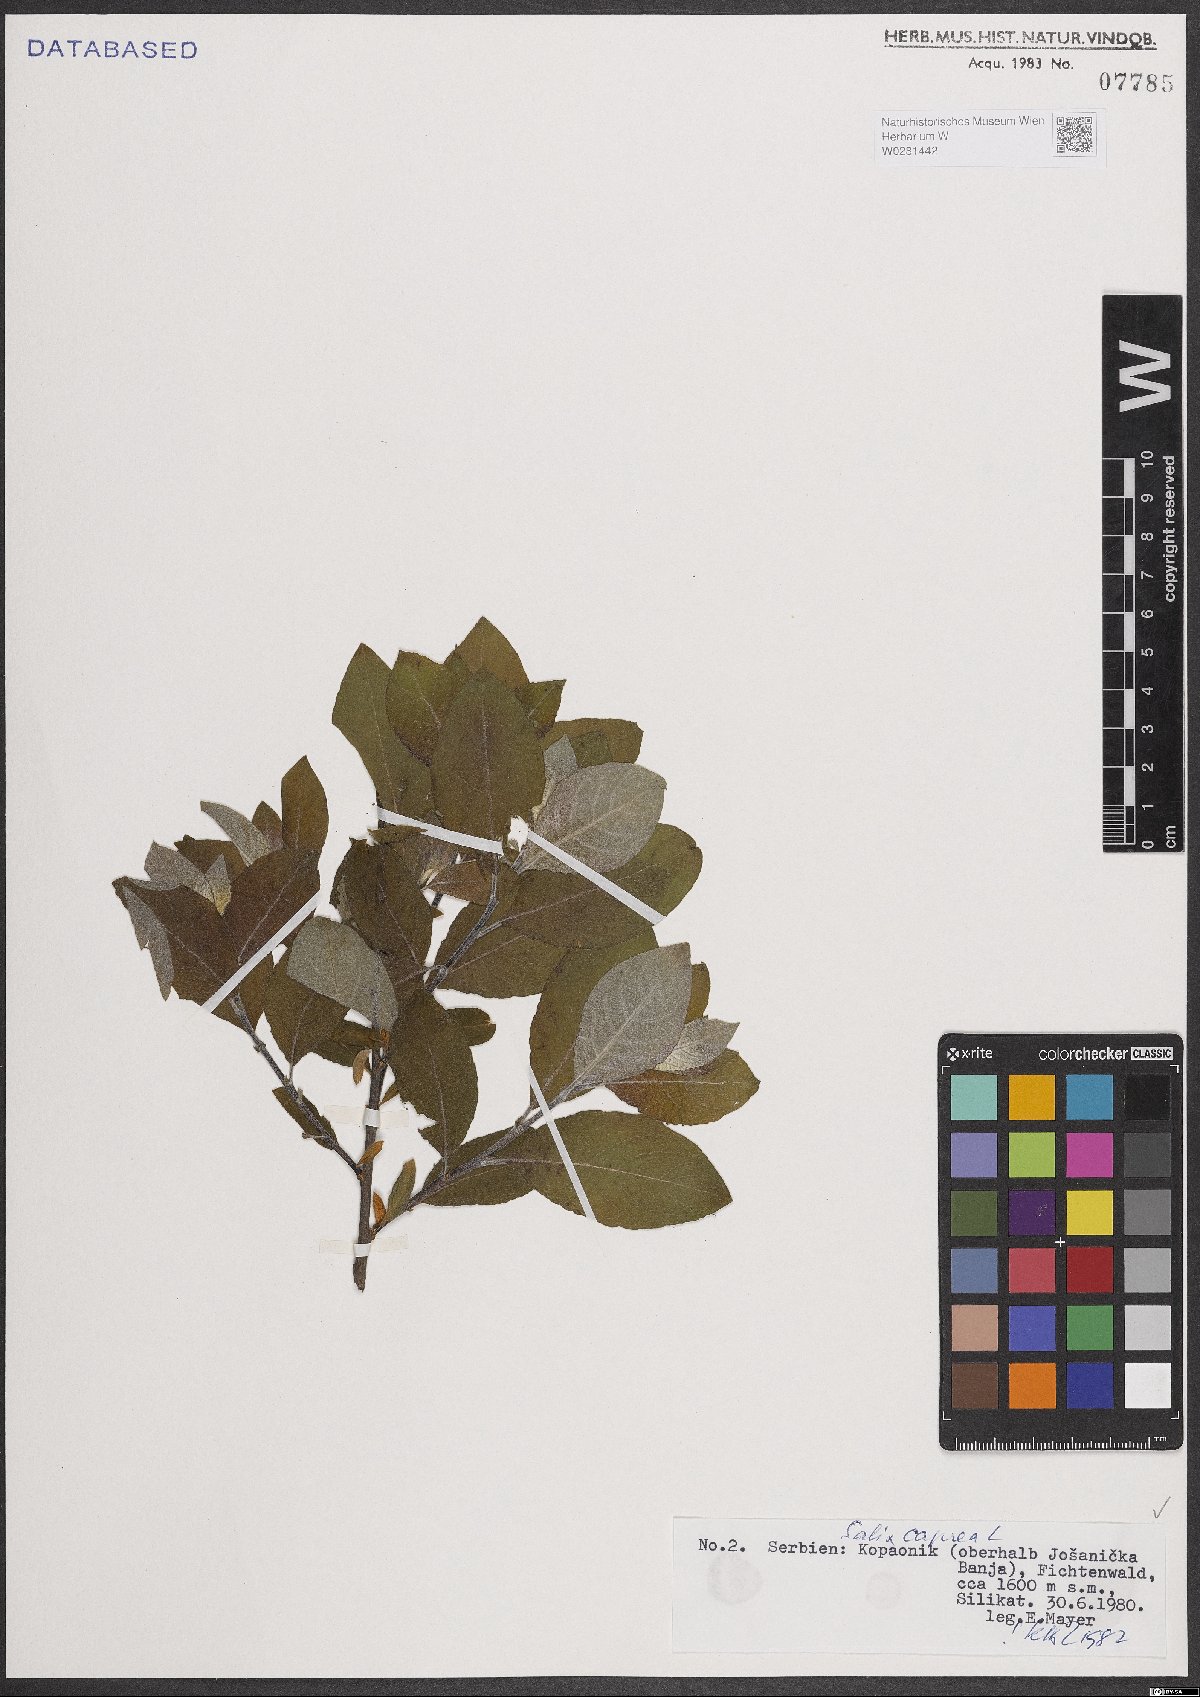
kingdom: Plantae
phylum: Tracheophyta
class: Magnoliopsida
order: Malpighiales
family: Salicaceae
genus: Salix
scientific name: Salix caprea
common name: Goat willow
